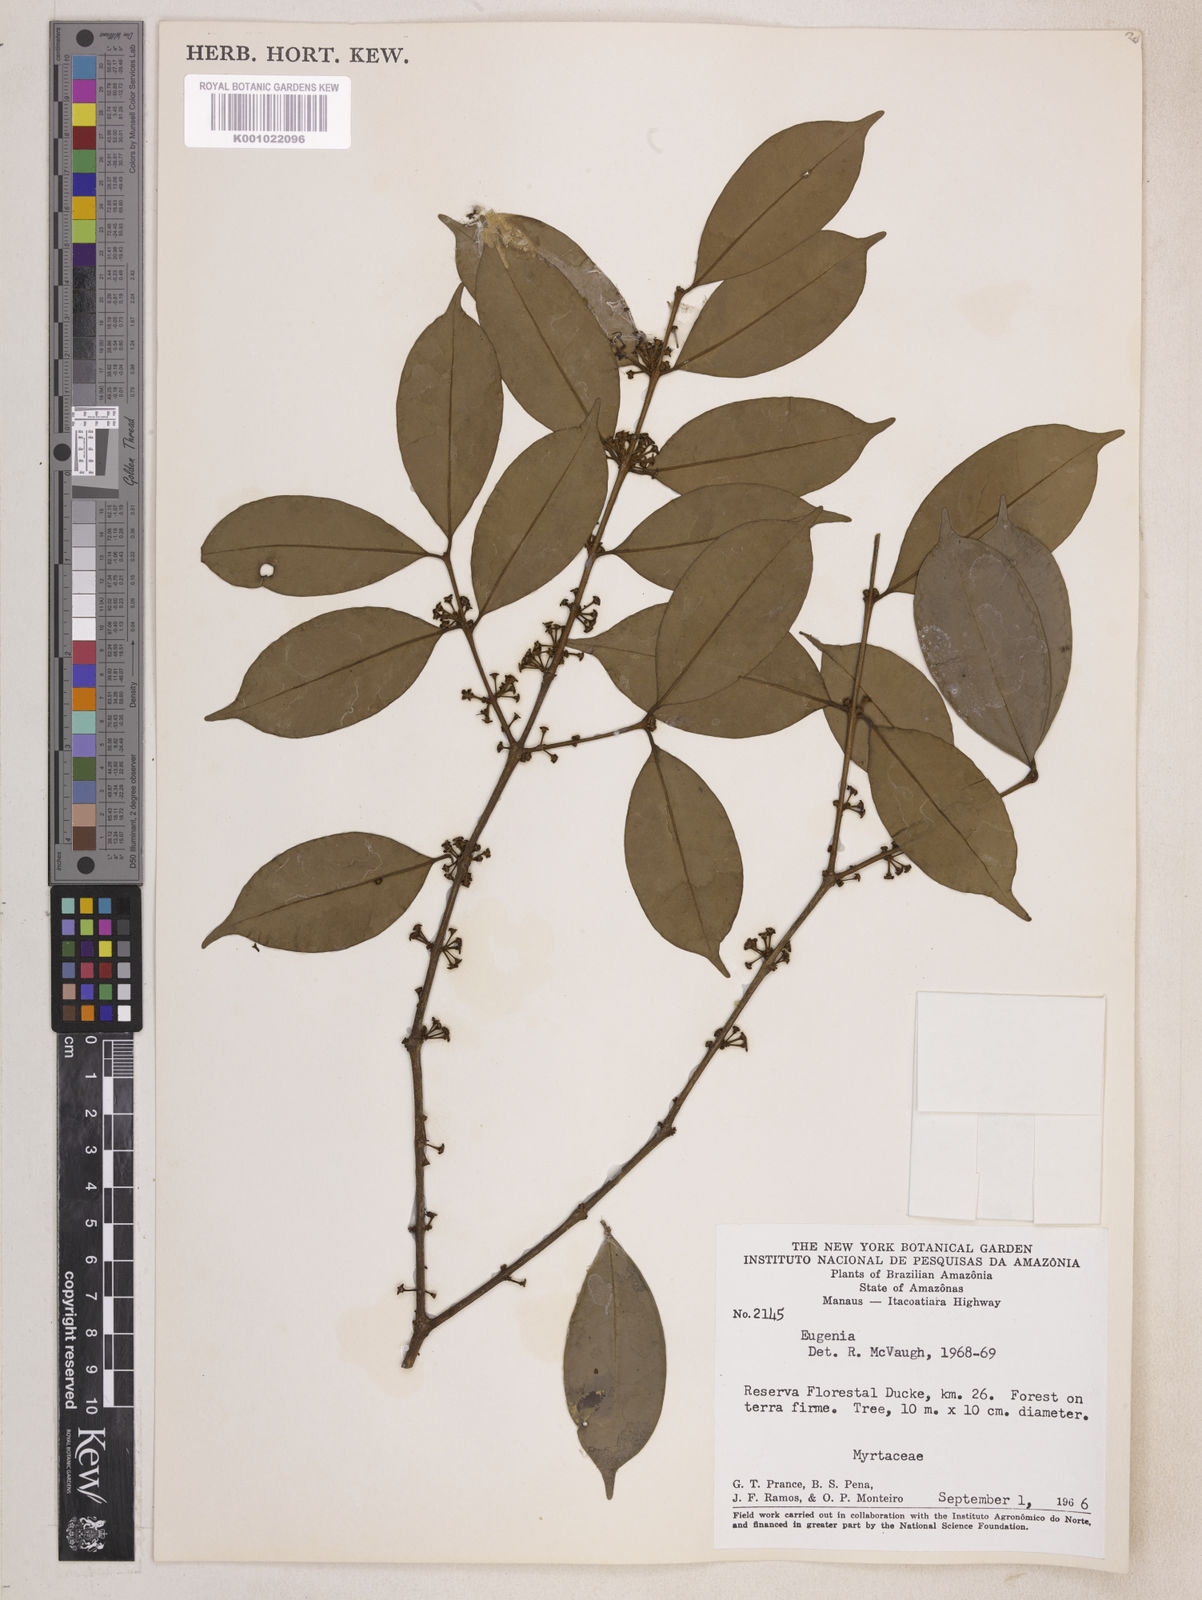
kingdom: Plantae
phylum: Tracheophyta
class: Magnoliopsida
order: Myrtales
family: Myrtaceae
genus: Eugenia
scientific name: Eugenia caducipetala
